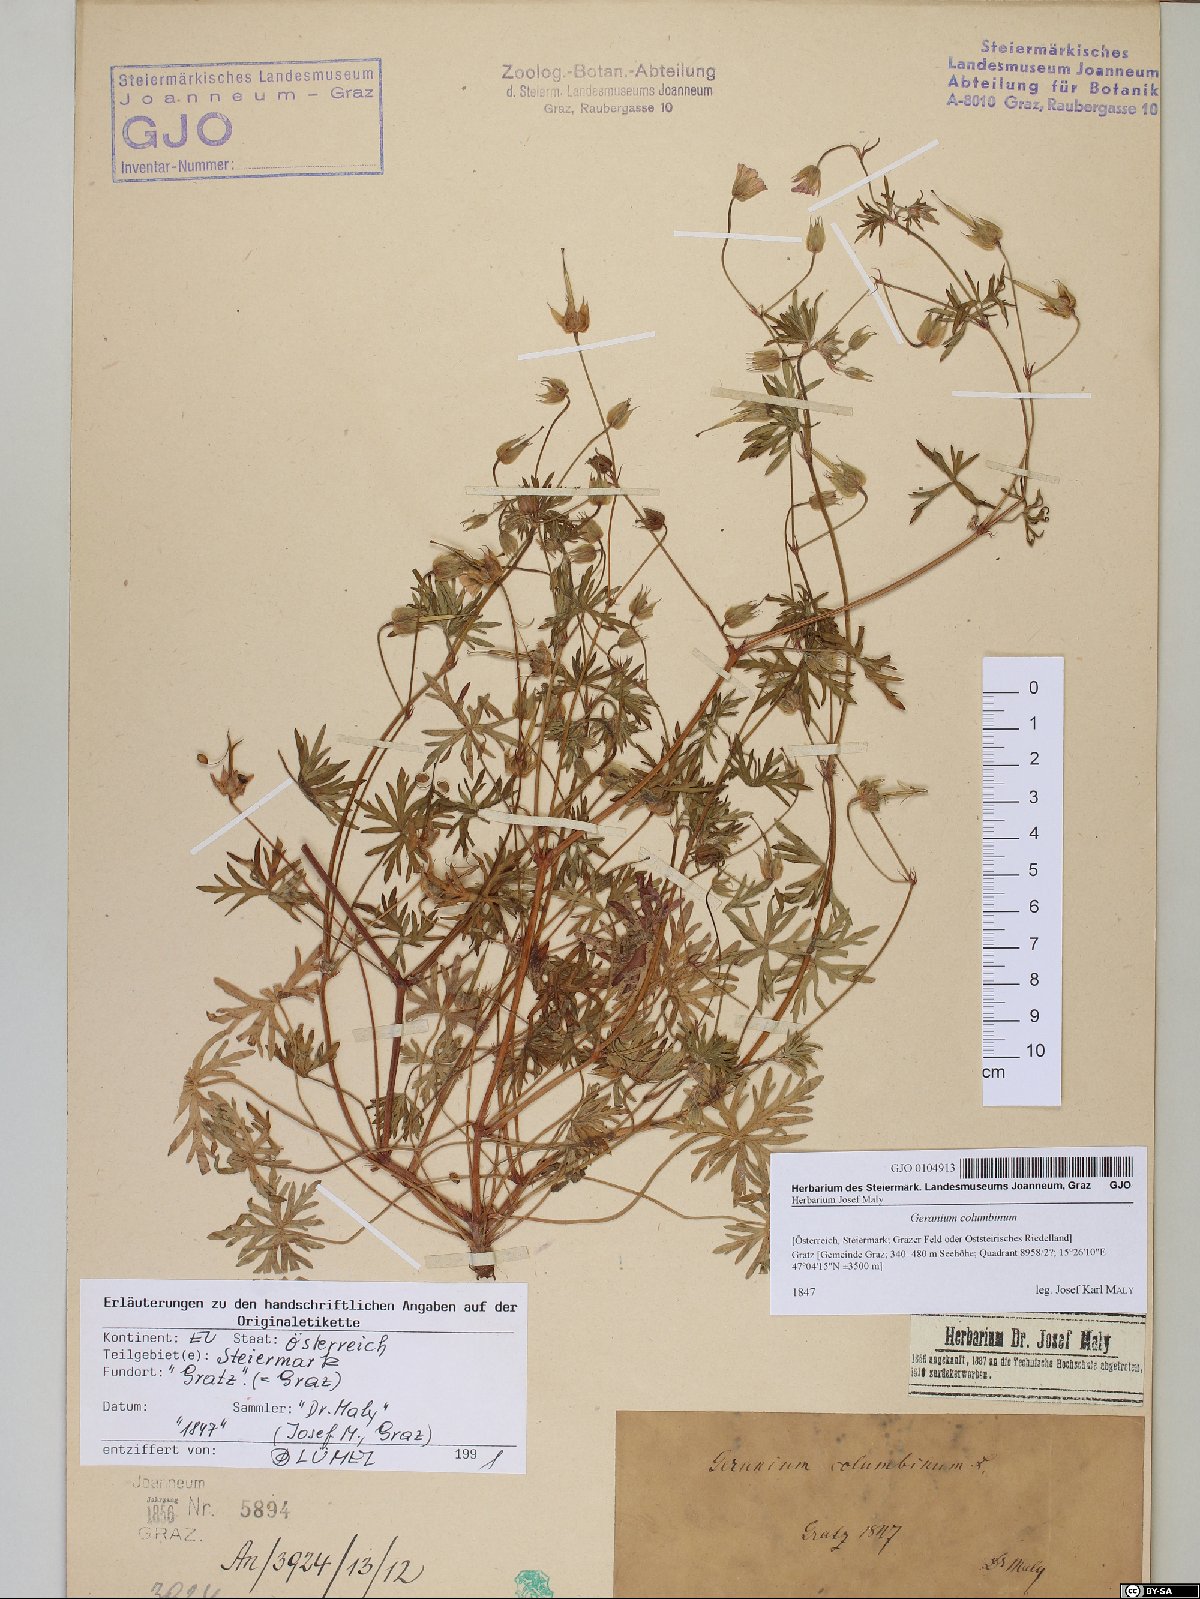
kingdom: Plantae
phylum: Tracheophyta
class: Magnoliopsida
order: Geraniales
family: Geraniaceae
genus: Geranium
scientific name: Geranium columbinum
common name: Long-stalked crane's-bill
